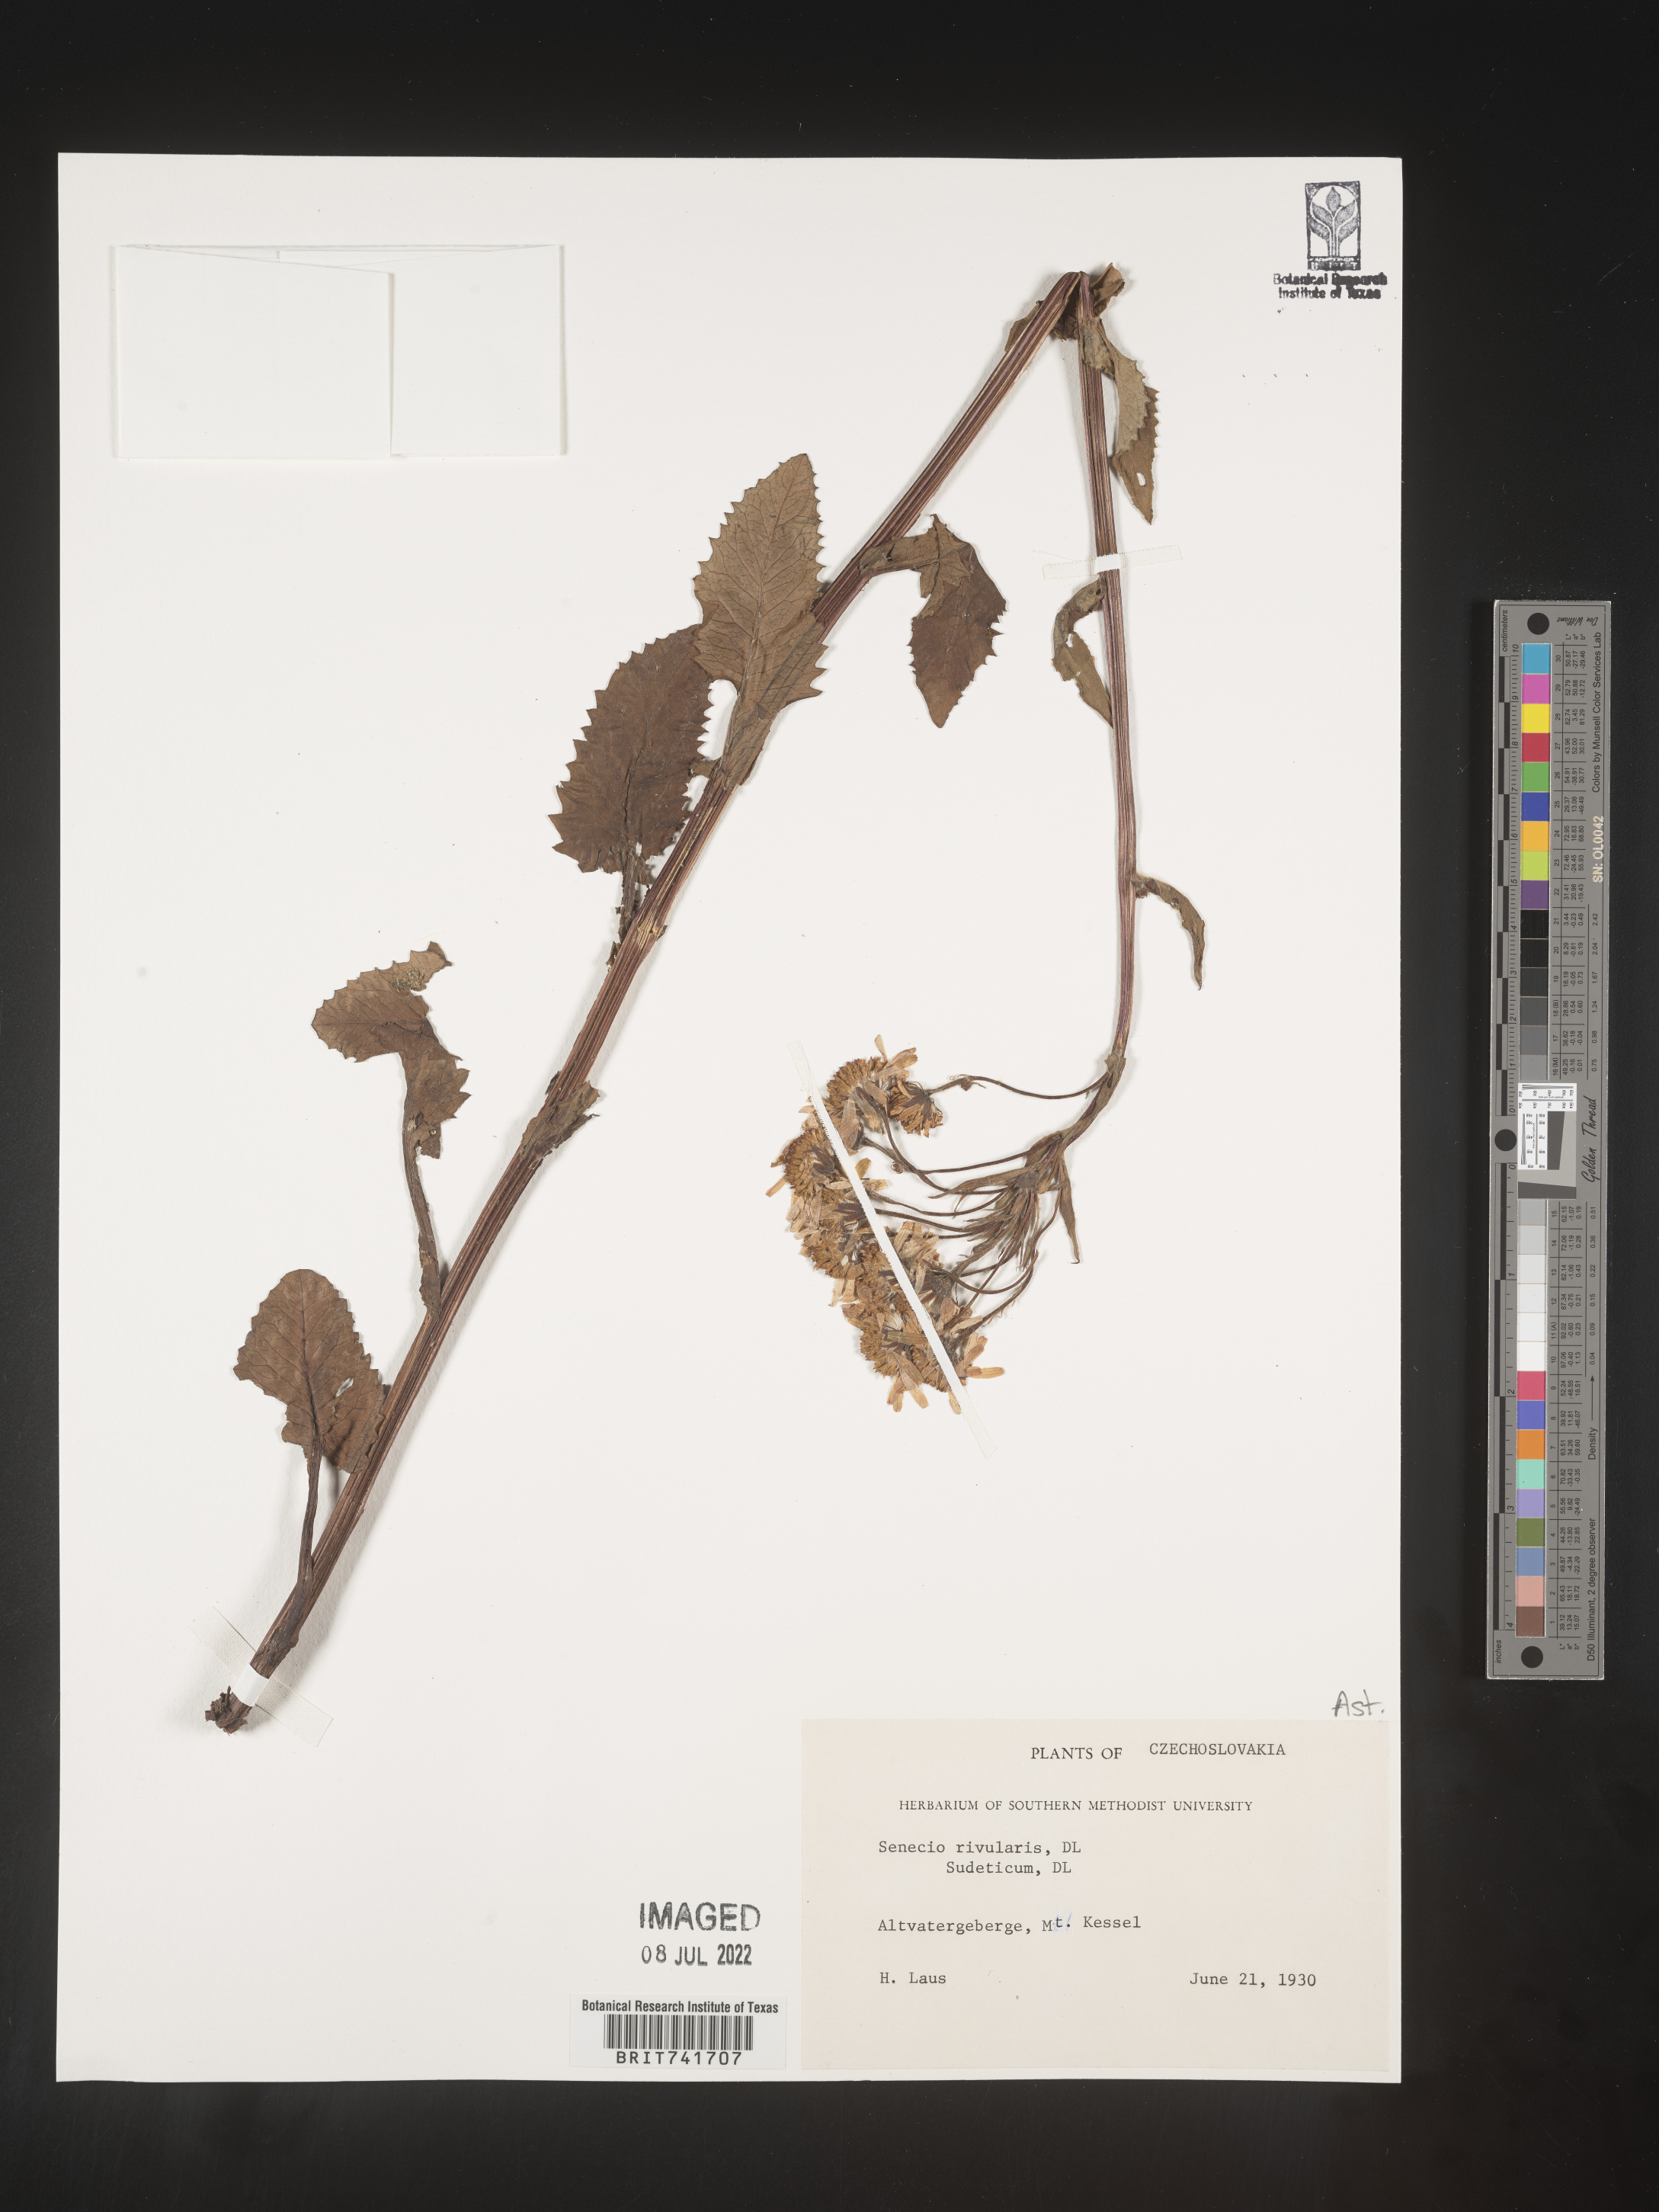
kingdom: Plantae
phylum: Tracheophyta
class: Magnoliopsida
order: Asterales
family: Asteraceae
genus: Senecio
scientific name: Senecio
